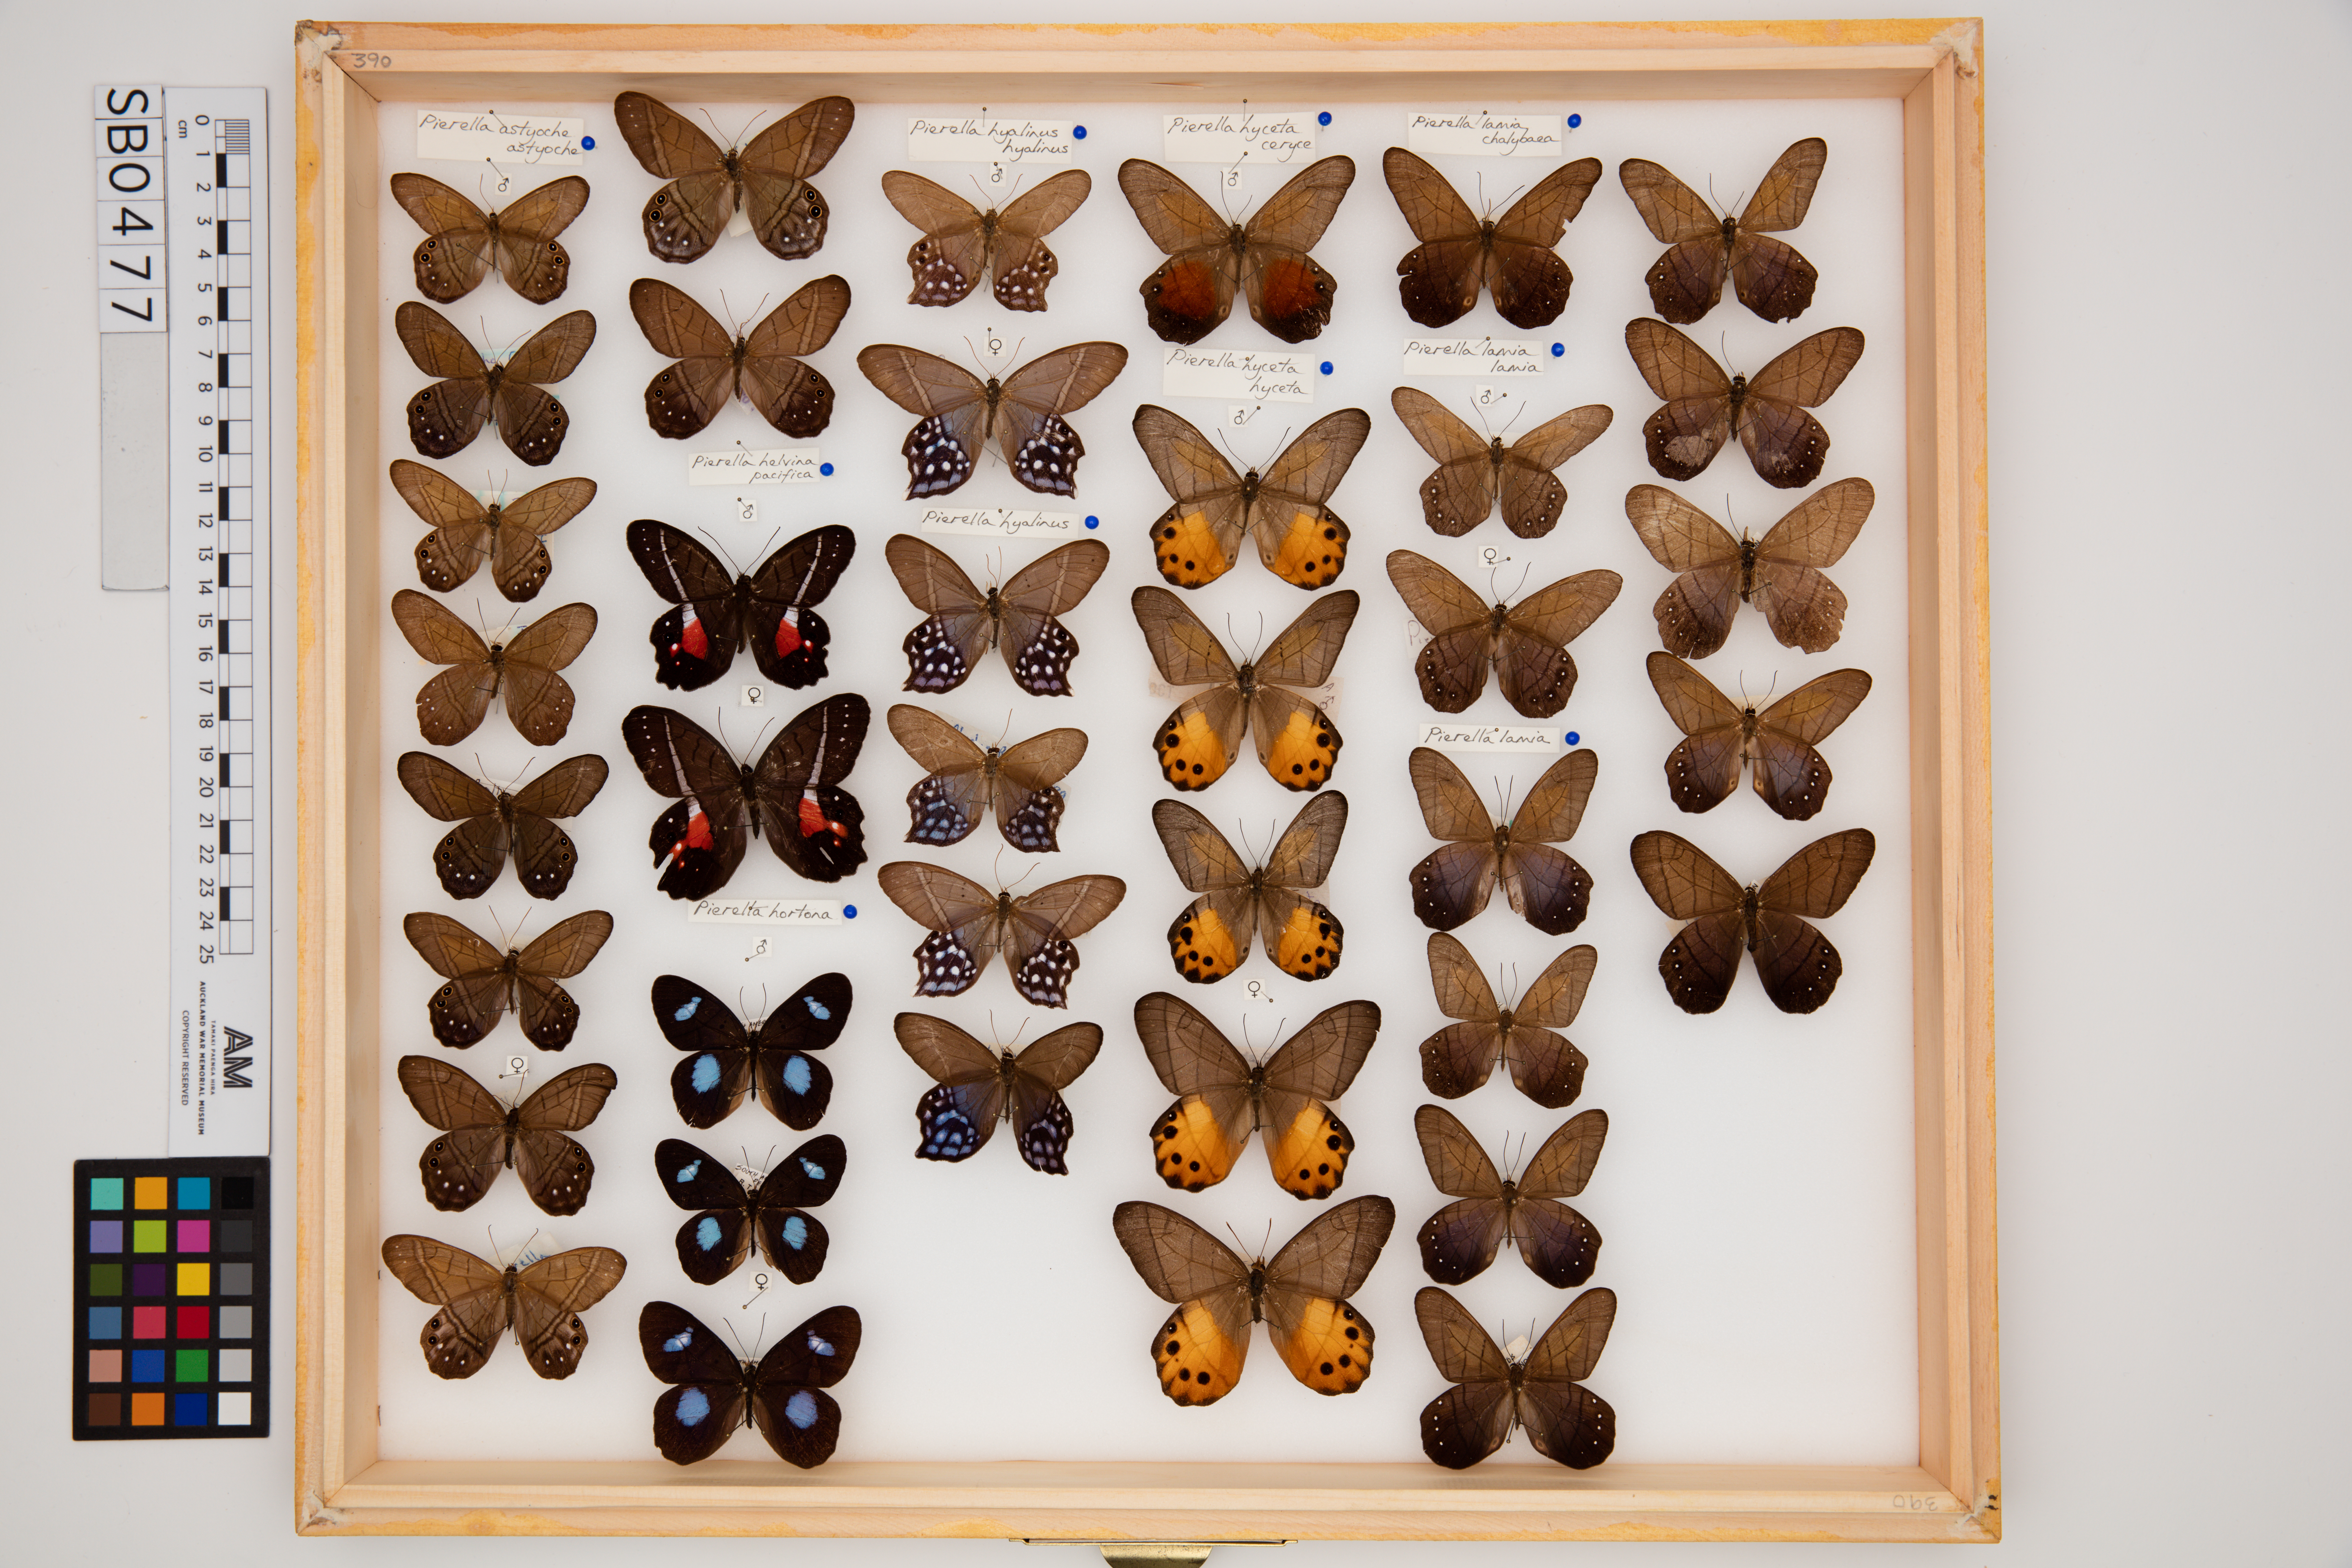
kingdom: Animalia
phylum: Arthropoda
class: Insecta
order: Lepidoptera
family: Nymphalidae
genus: Pierella
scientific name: Pierella rhea
